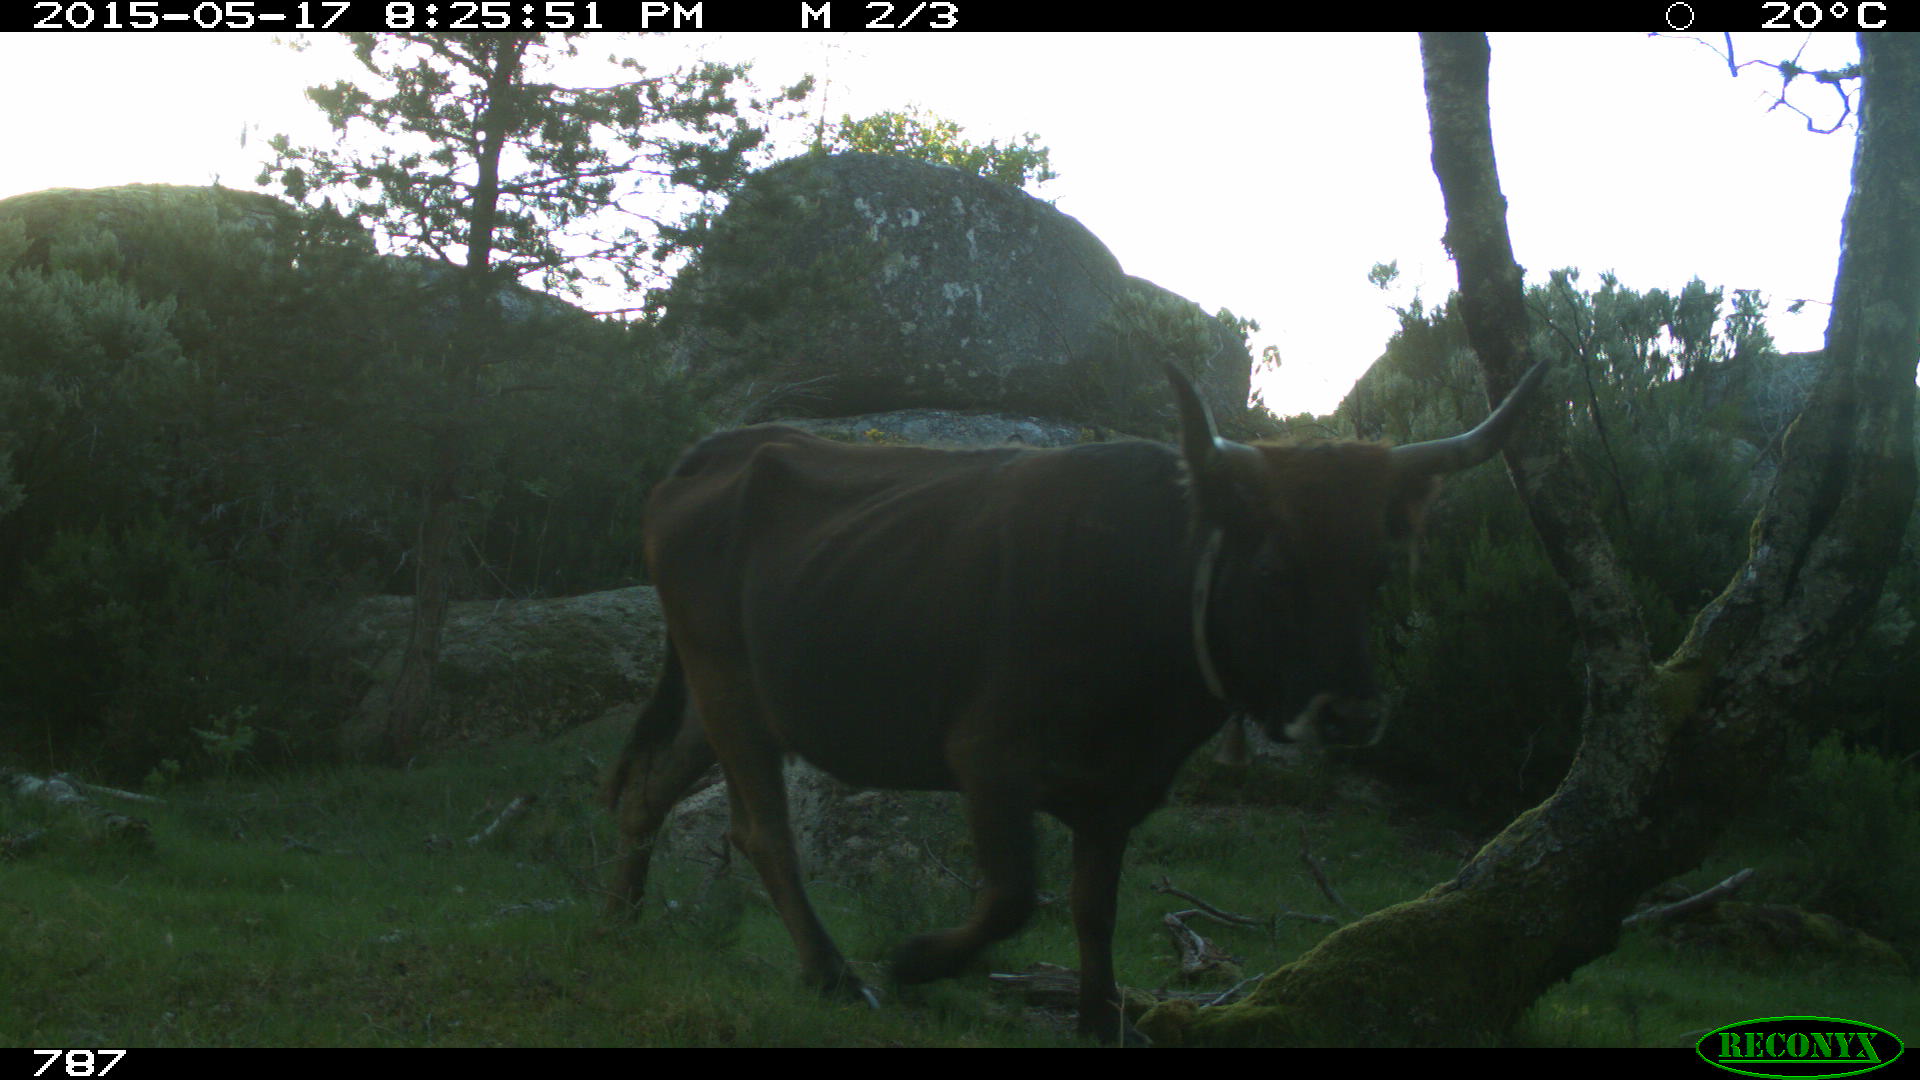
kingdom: Animalia
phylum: Chordata
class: Mammalia
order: Artiodactyla
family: Bovidae
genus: Bos
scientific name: Bos taurus
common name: Domesticated cattle
